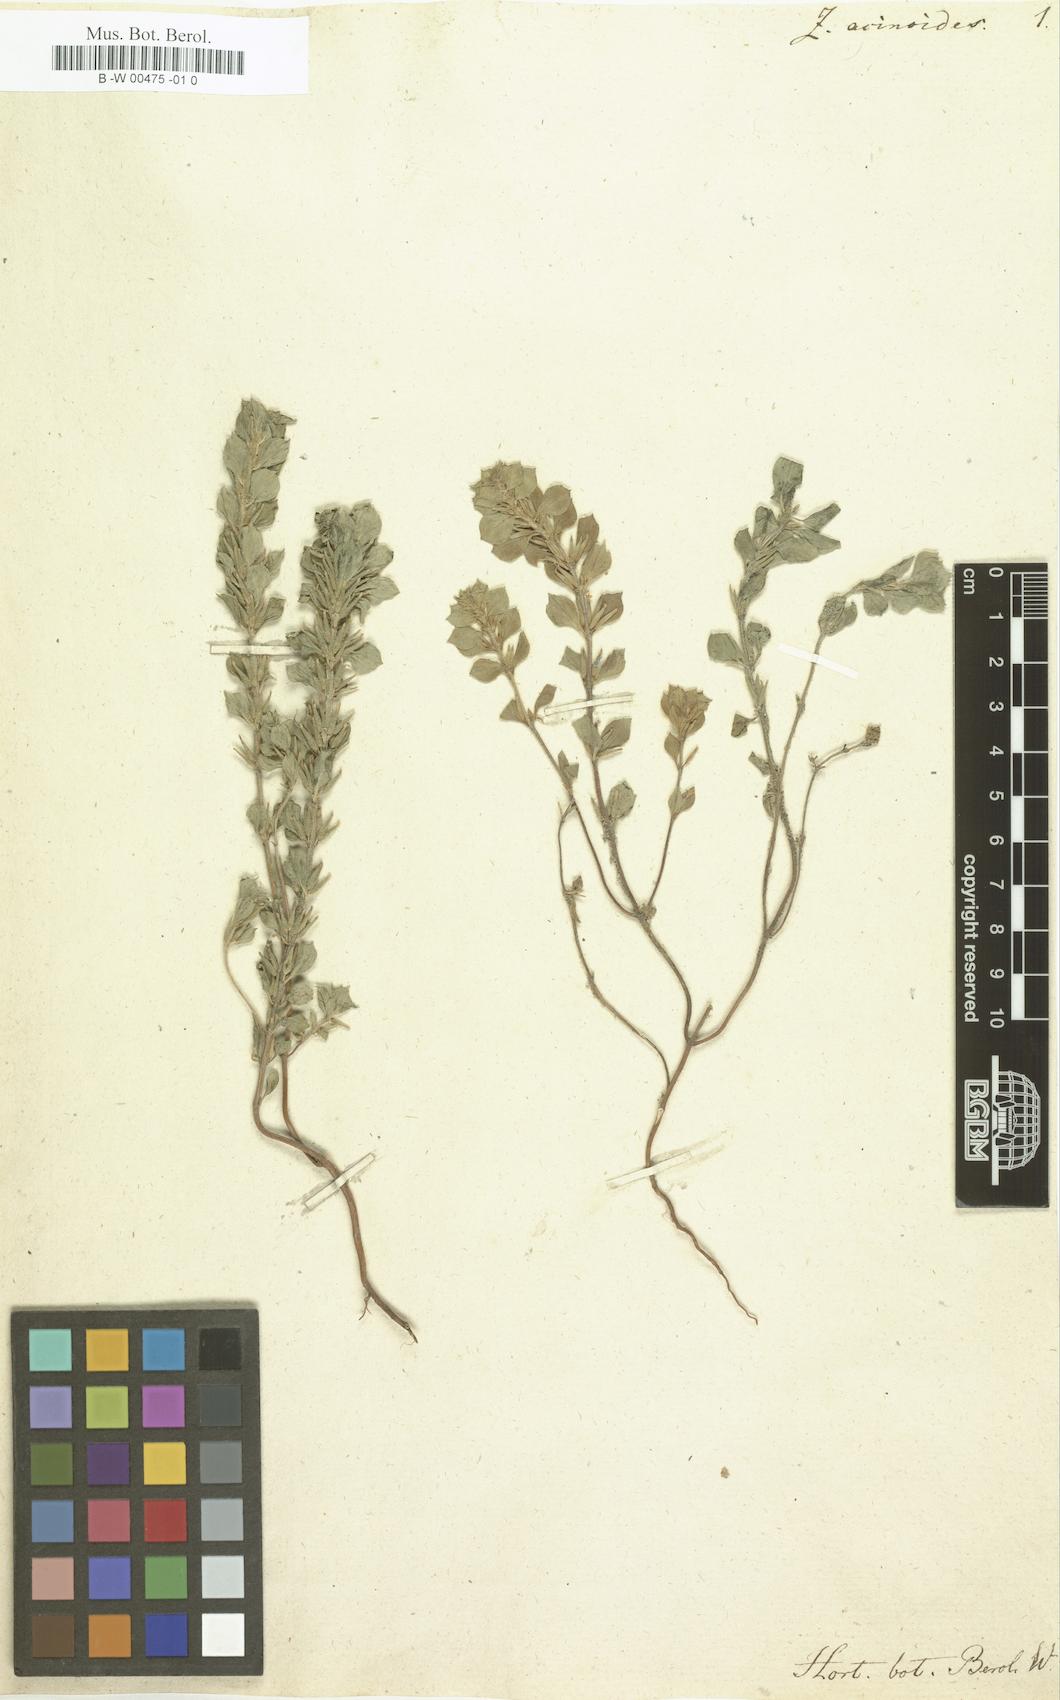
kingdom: Plantae
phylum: Tracheophyta
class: Magnoliopsida
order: Lamiales
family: Lamiaceae
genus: Ziziphora
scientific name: Ziziphora persica
